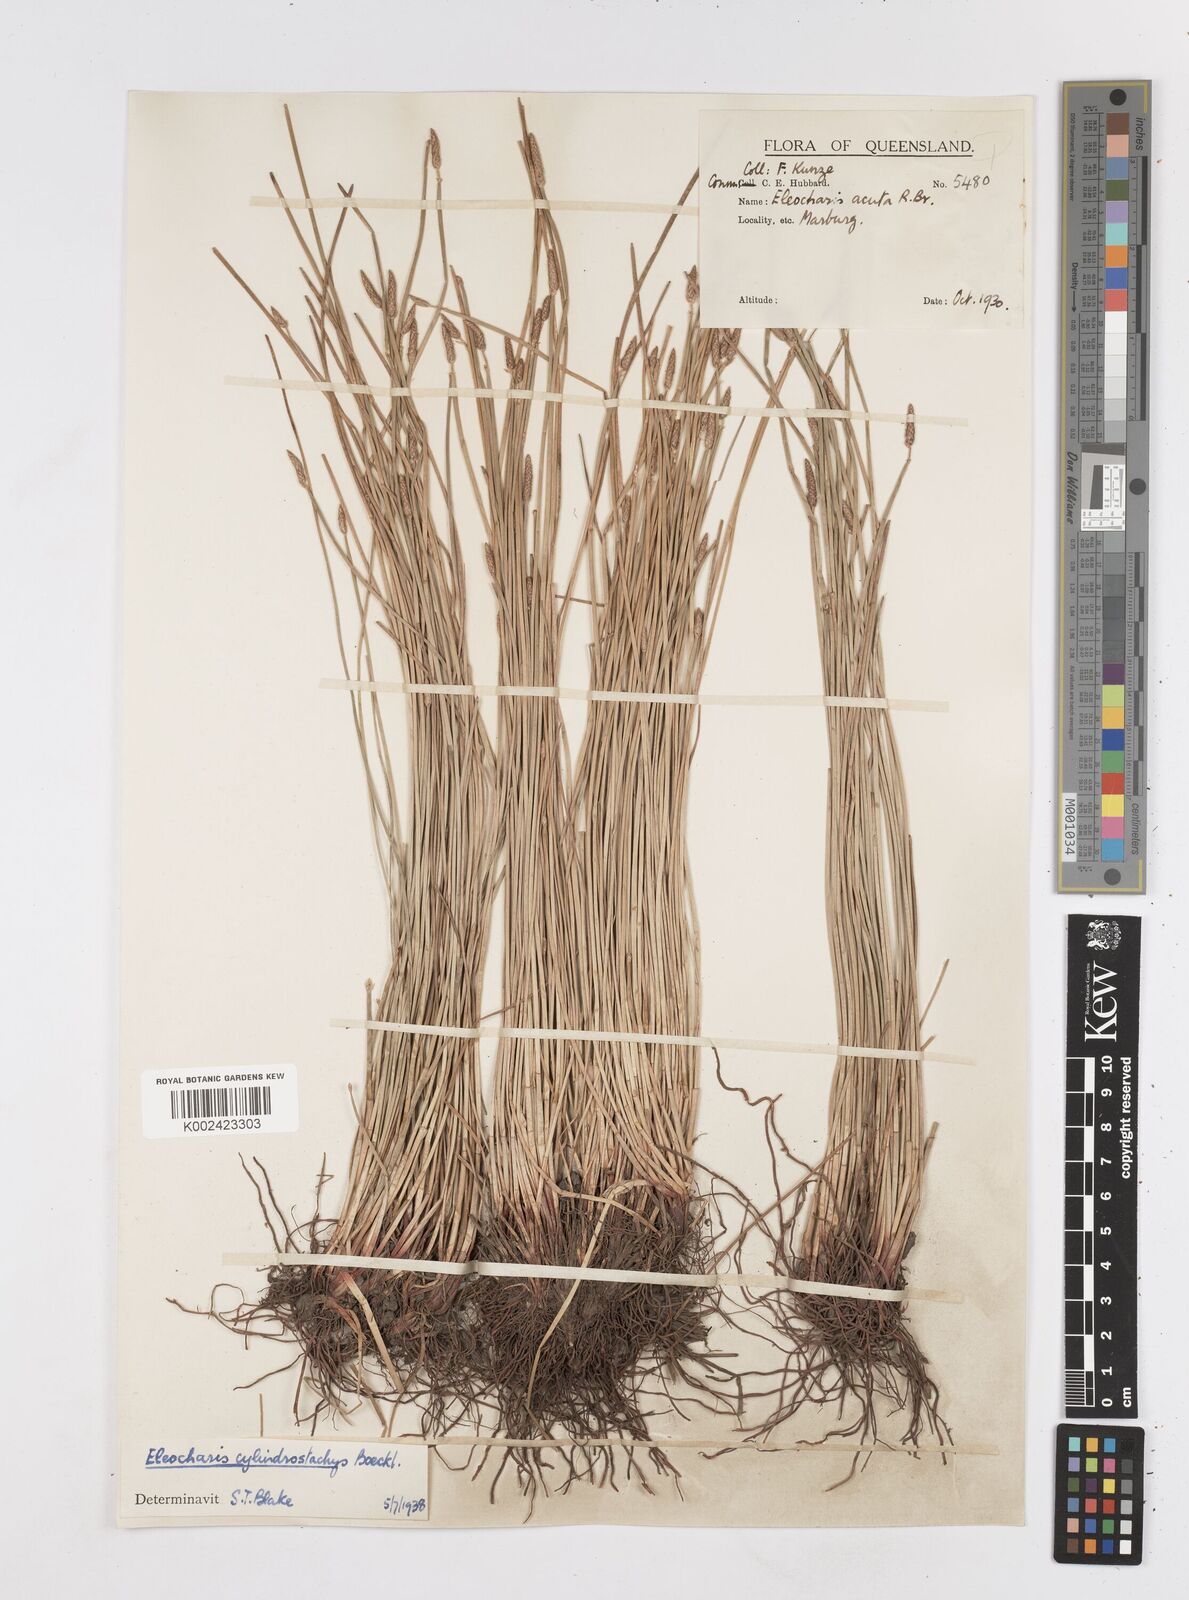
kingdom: Plantae
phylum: Tracheophyta
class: Liliopsida
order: Poales
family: Cyperaceae
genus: Eleocharis
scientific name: Eleocharis cylindrostachys
